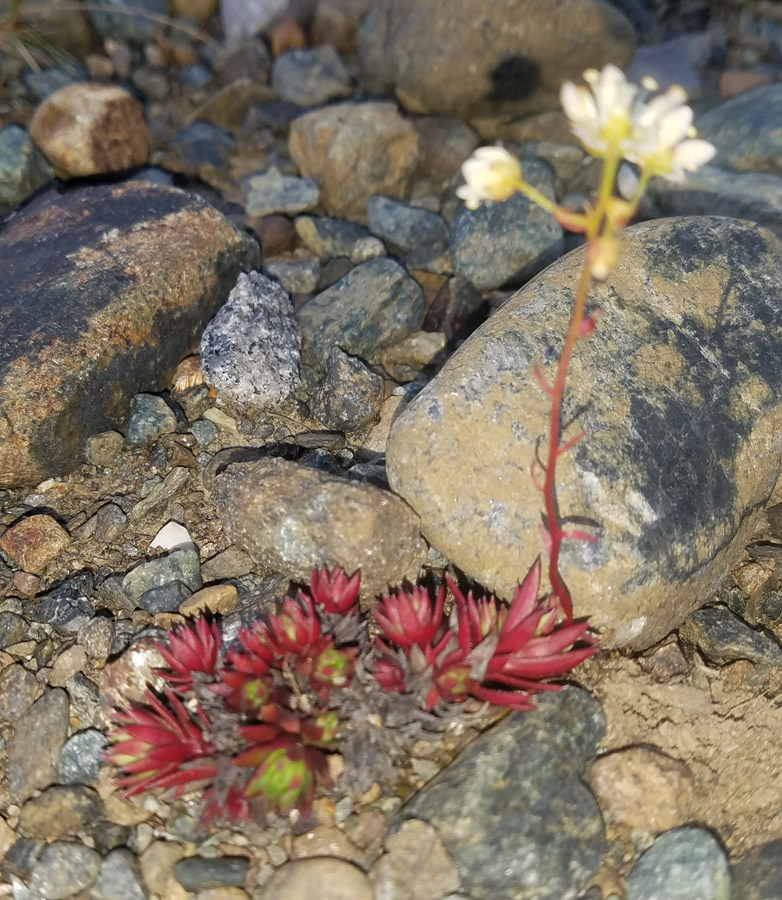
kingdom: Plantae
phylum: Tracheophyta
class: Magnoliopsida
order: Saxifragales
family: Saxifragaceae
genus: Saxifraga
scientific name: Saxifraga bronchialis
